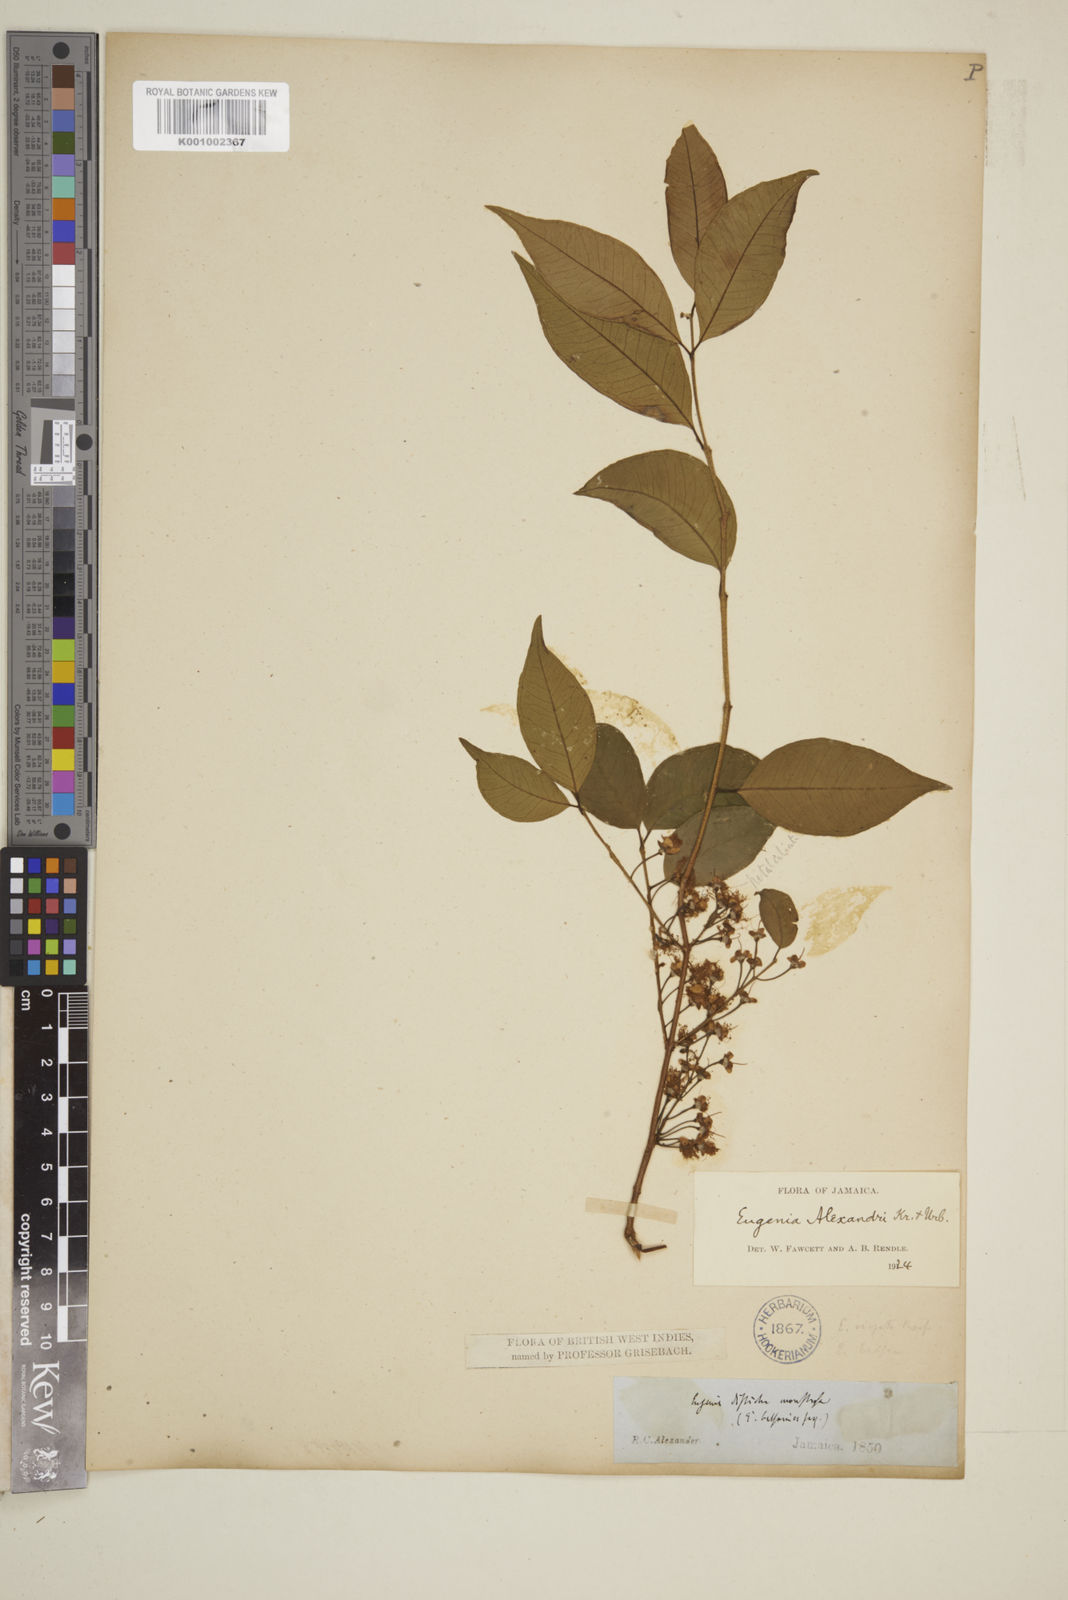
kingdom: Plantae
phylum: Tracheophyta
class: Magnoliopsida
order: Myrtales
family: Myrtaceae
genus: Eugenia
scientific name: Eugenia alexandri
